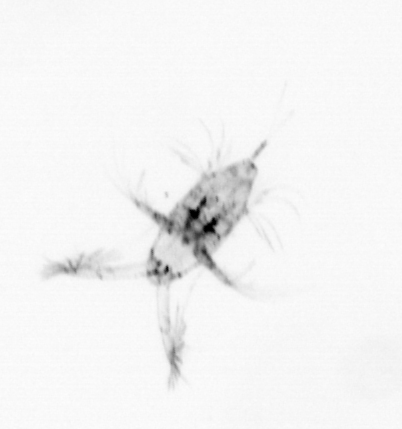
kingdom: Animalia
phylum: Arthropoda
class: Copepoda
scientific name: Copepoda
